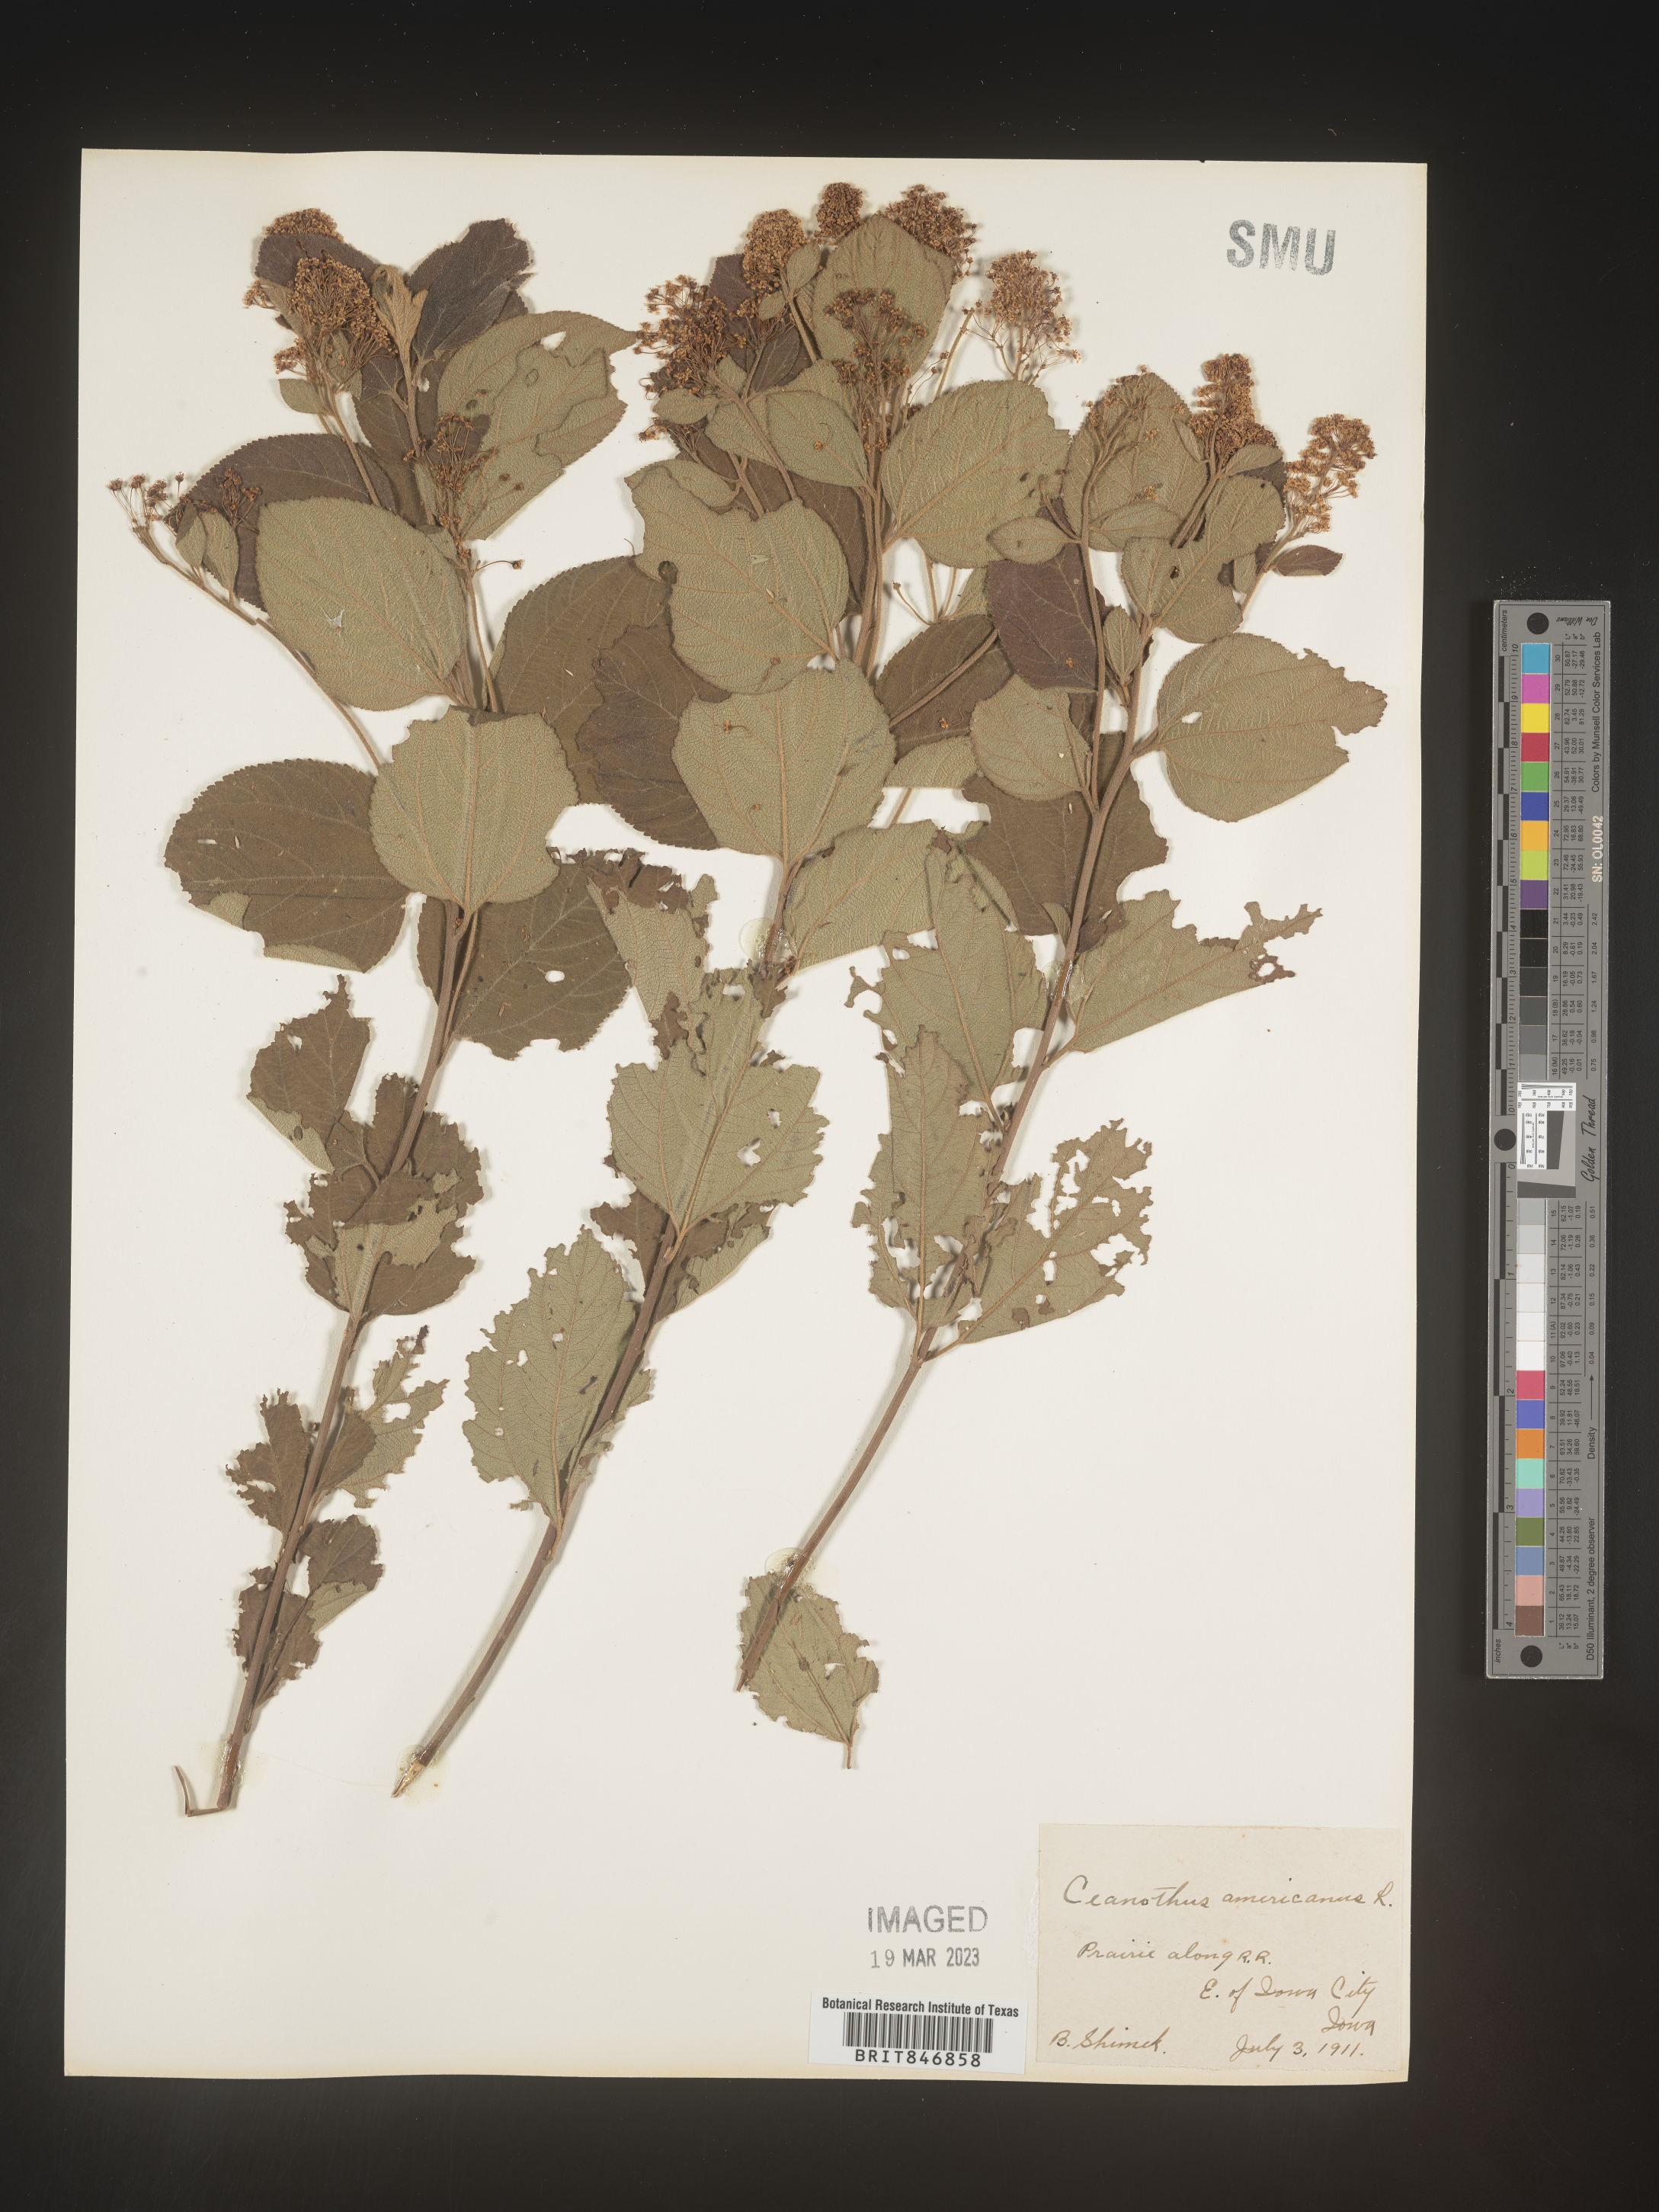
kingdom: Plantae
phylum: Tracheophyta
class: Magnoliopsida
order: Rosales
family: Rhamnaceae
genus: Ceanothus
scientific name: Ceanothus americanus
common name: Redroot
